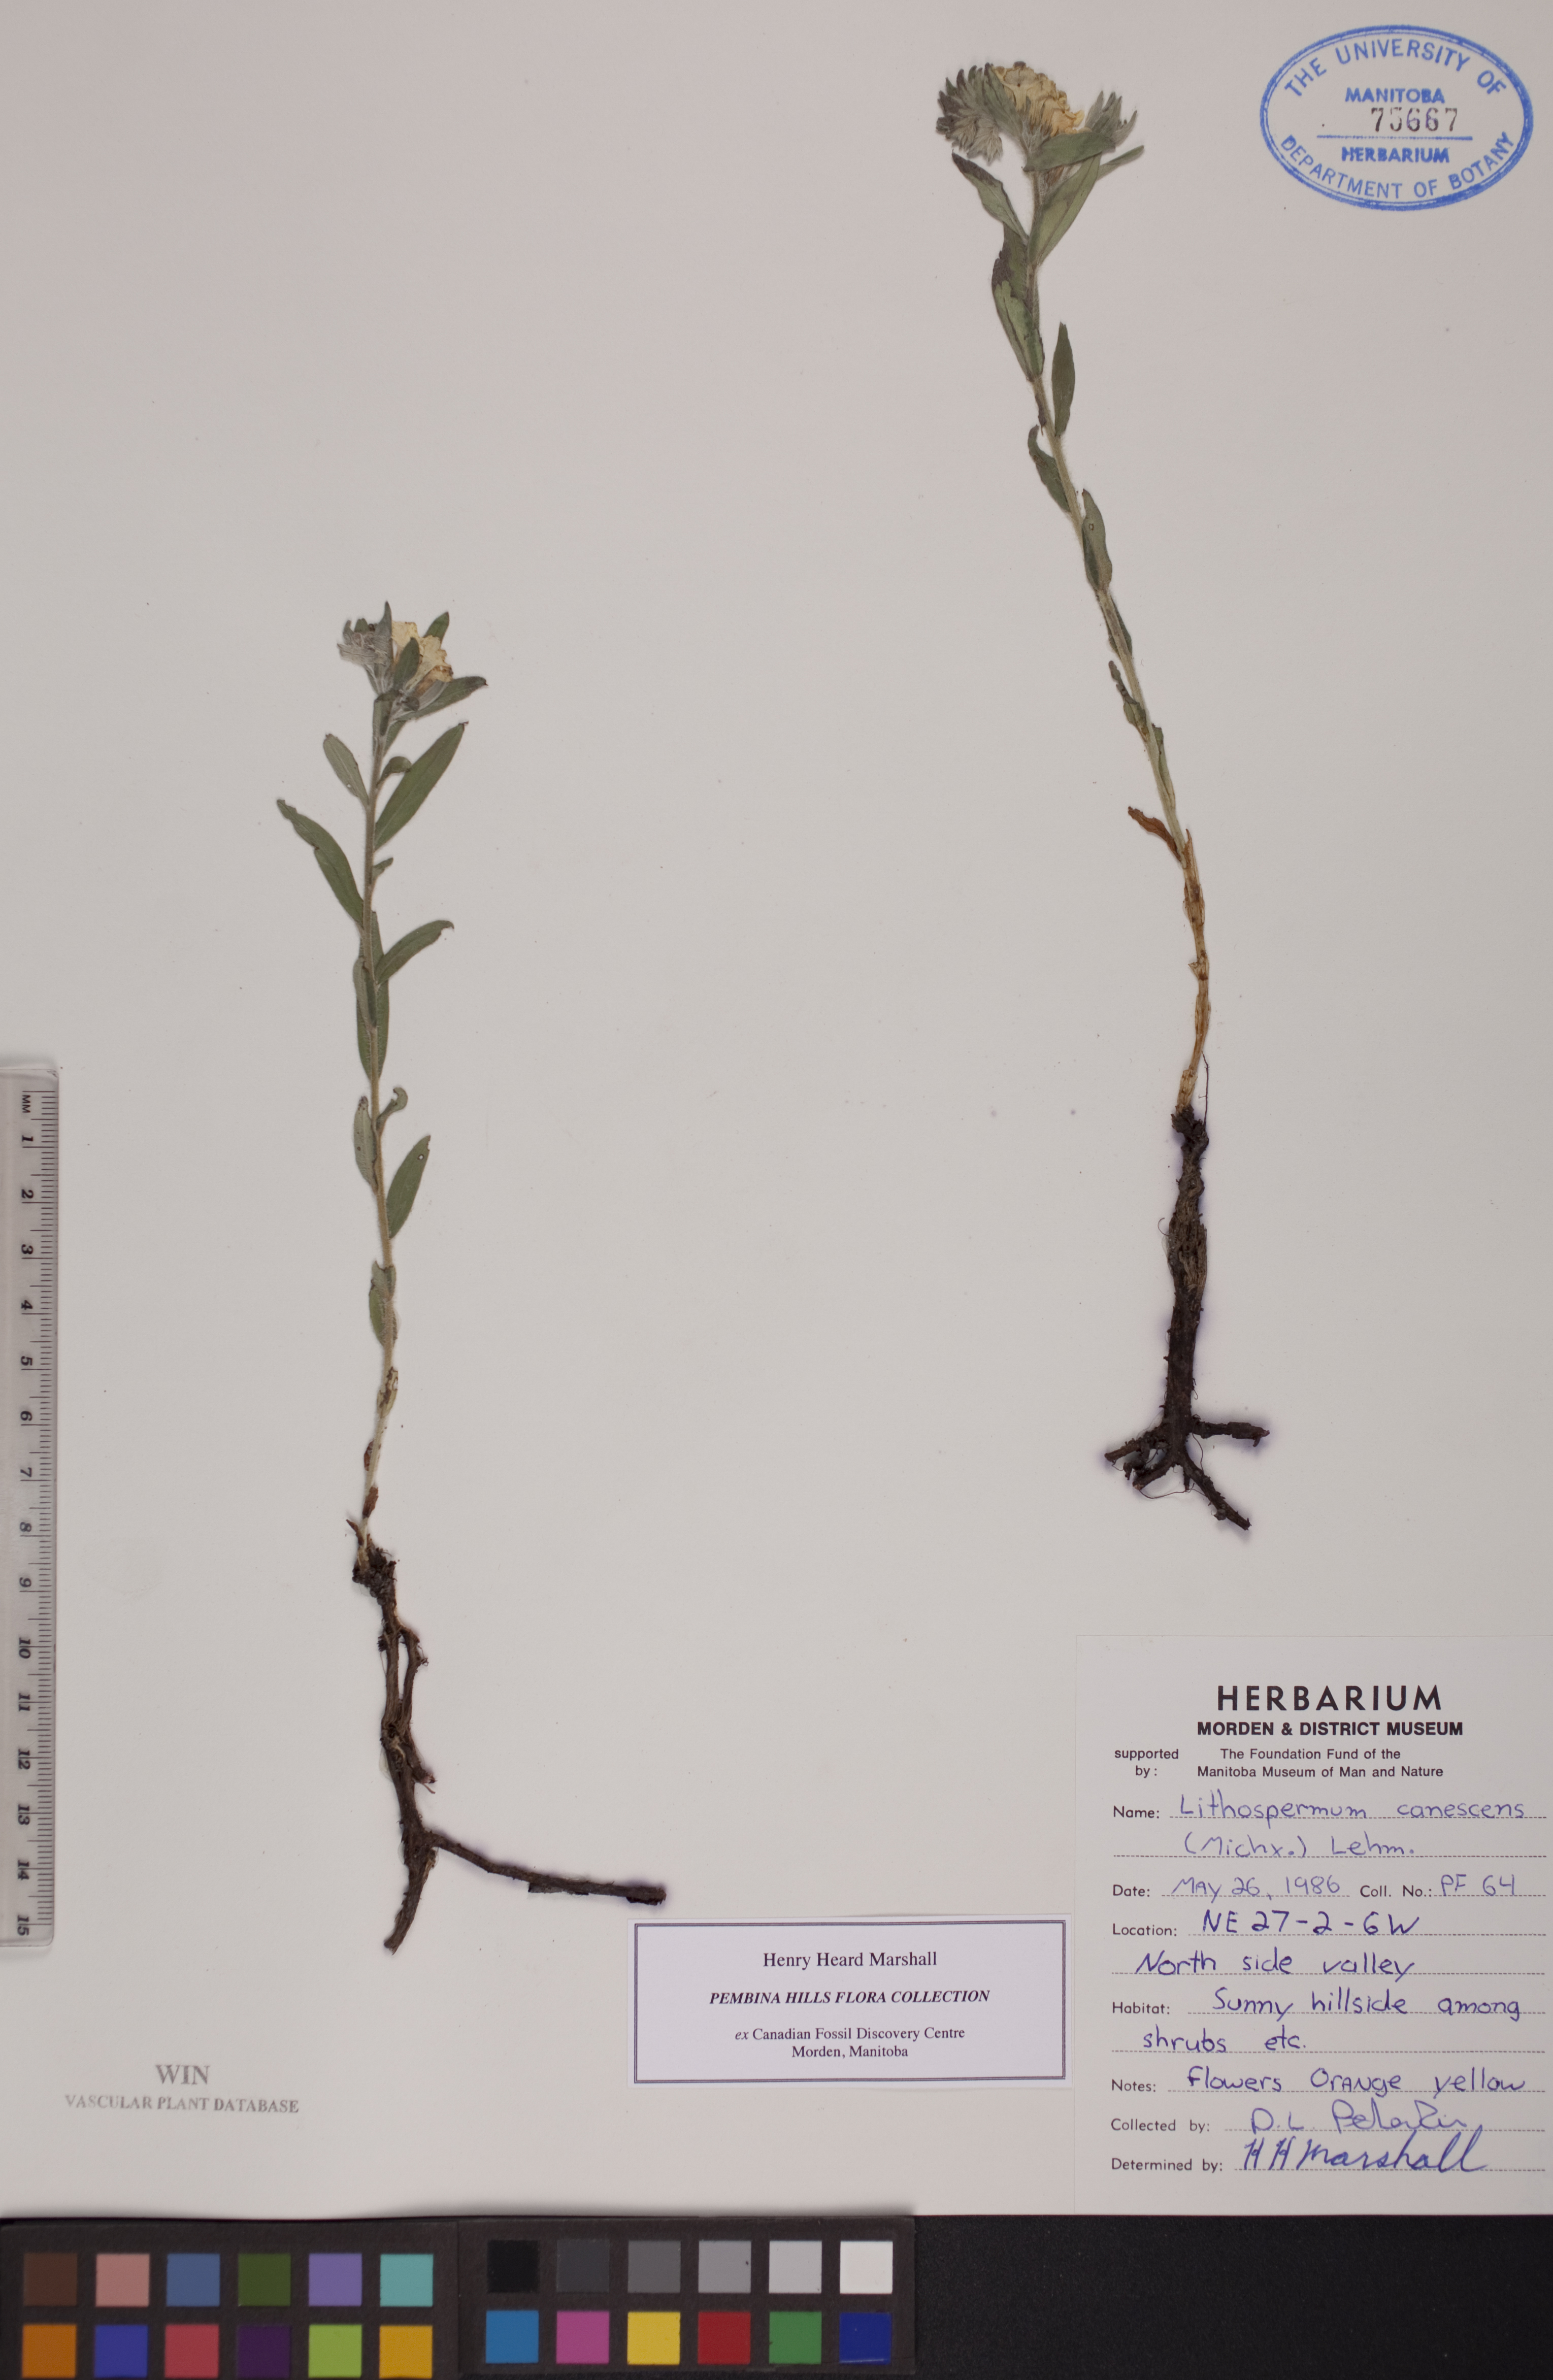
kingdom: Plantae
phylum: Tracheophyta
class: Magnoliopsida
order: Boraginales
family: Boraginaceae
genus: Lithospermum
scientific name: Lithospermum canescens
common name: Hoary puccoon
